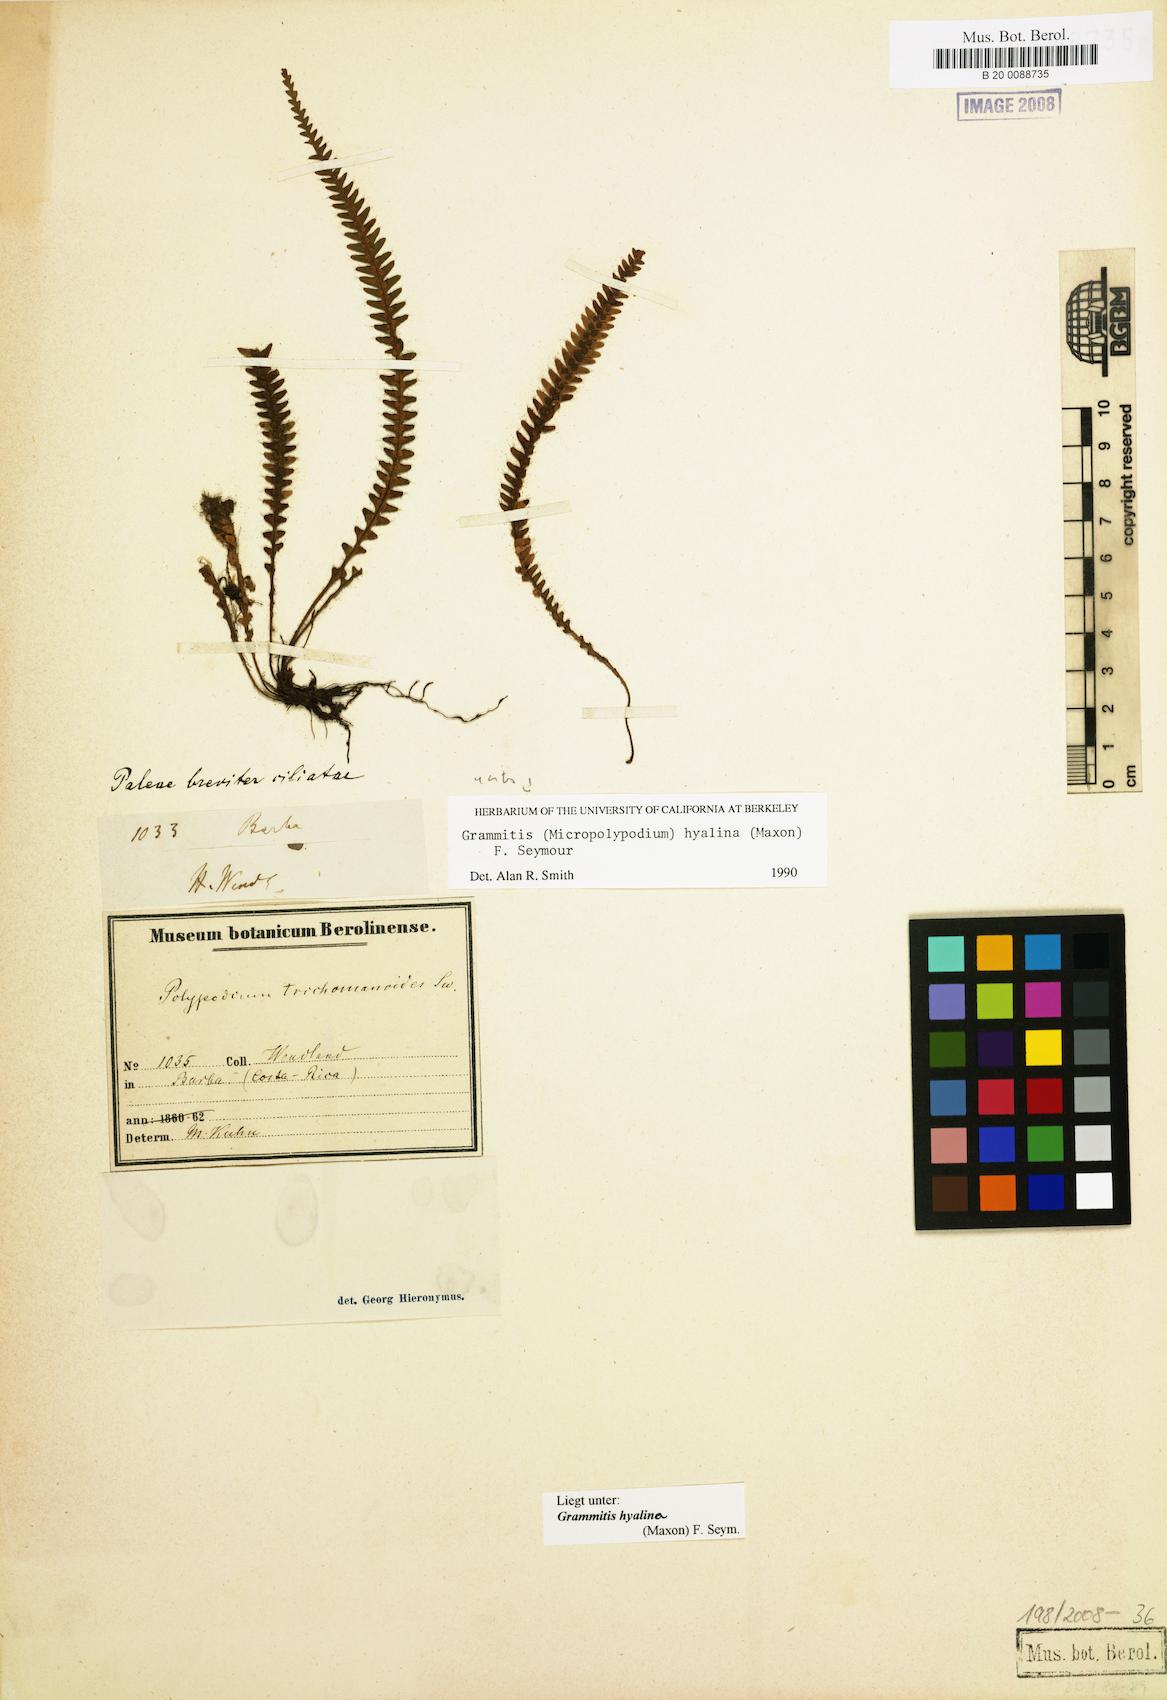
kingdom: Plantae
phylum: Tracheophyta
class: Polypodiopsida
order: Polypodiales
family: Polypodiaceae
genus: Moranopteris
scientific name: Moranopteris hyalina
